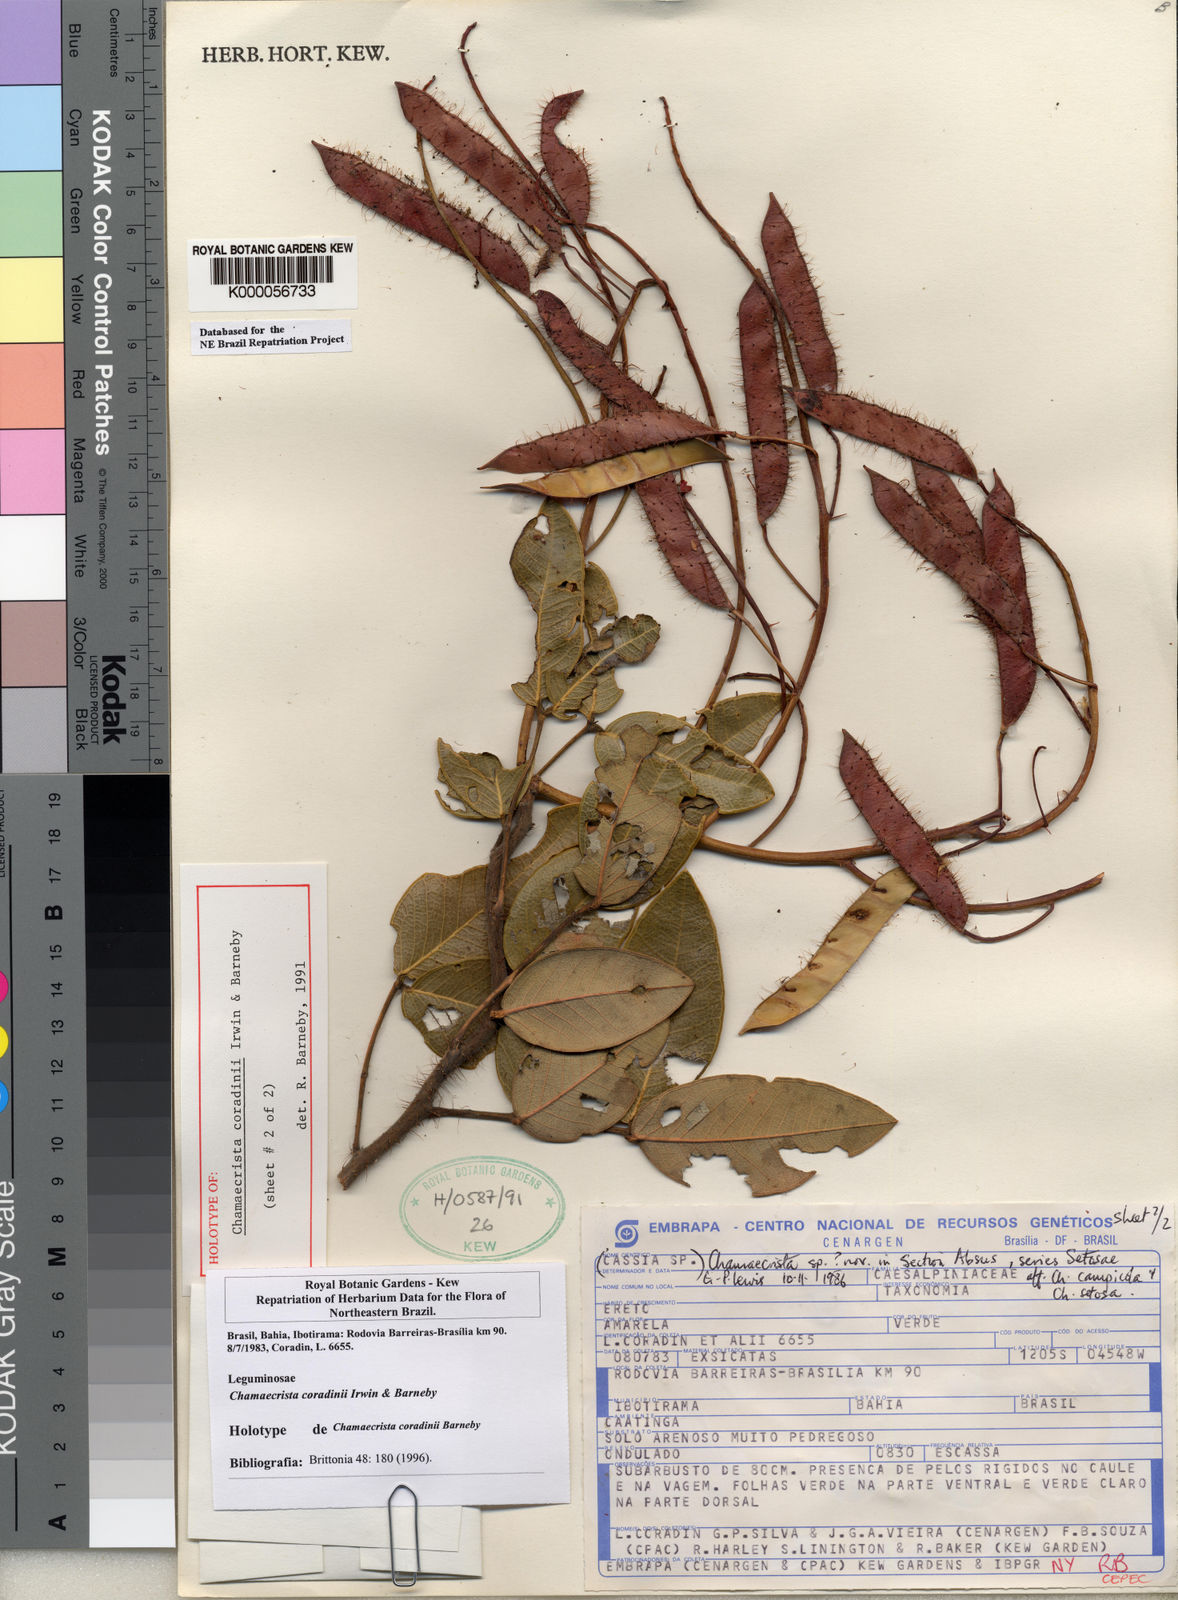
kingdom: Plantae
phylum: Tracheophyta
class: Magnoliopsida
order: Fabales
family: Fabaceae
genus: Chamaecrista
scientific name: Chamaecrista coradinii
